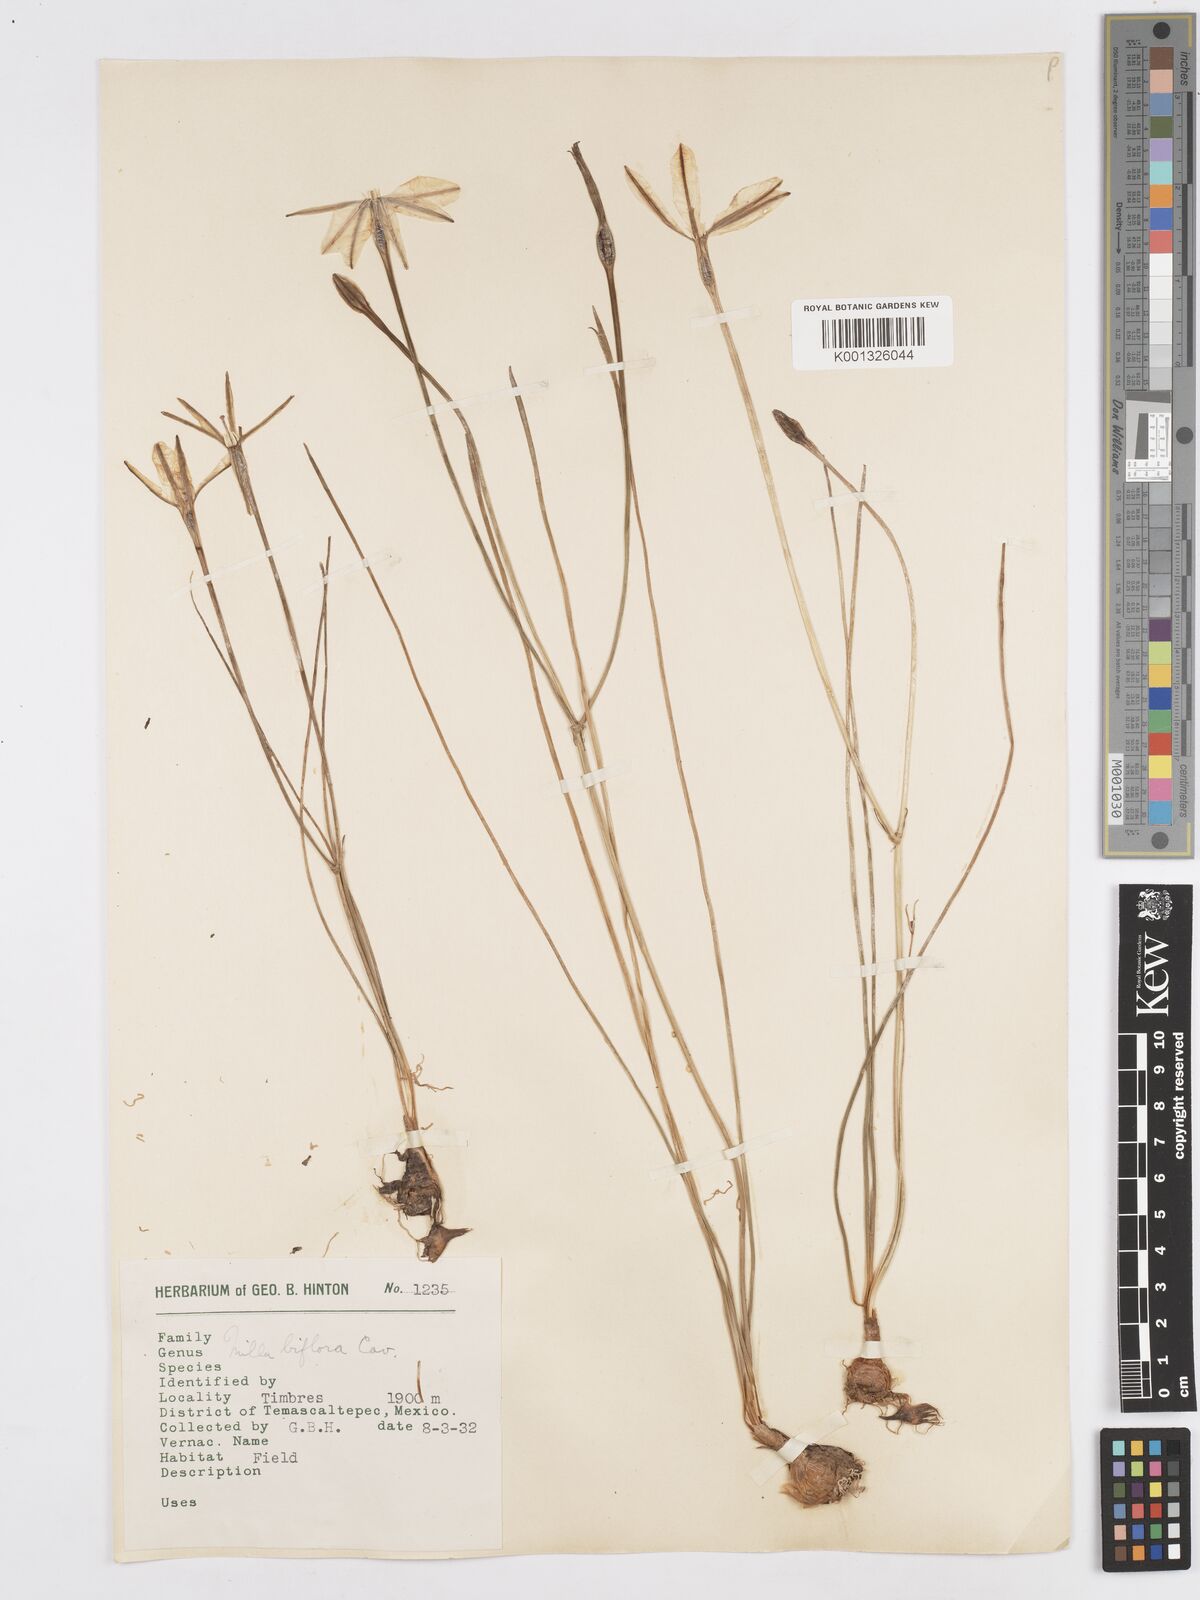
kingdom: Plantae
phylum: Tracheophyta
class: Liliopsida
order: Asparagales
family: Asparagaceae
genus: Milla
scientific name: Milla biflora
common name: Mexican-star
